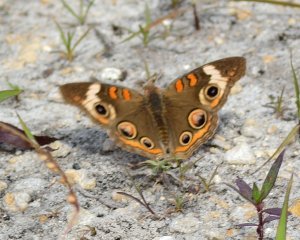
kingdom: Animalia
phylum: Arthropoda
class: Insecta
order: Lepidoptera
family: Nymphalidae
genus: Junonia
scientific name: Junonia coenia
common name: Common Buckeye
